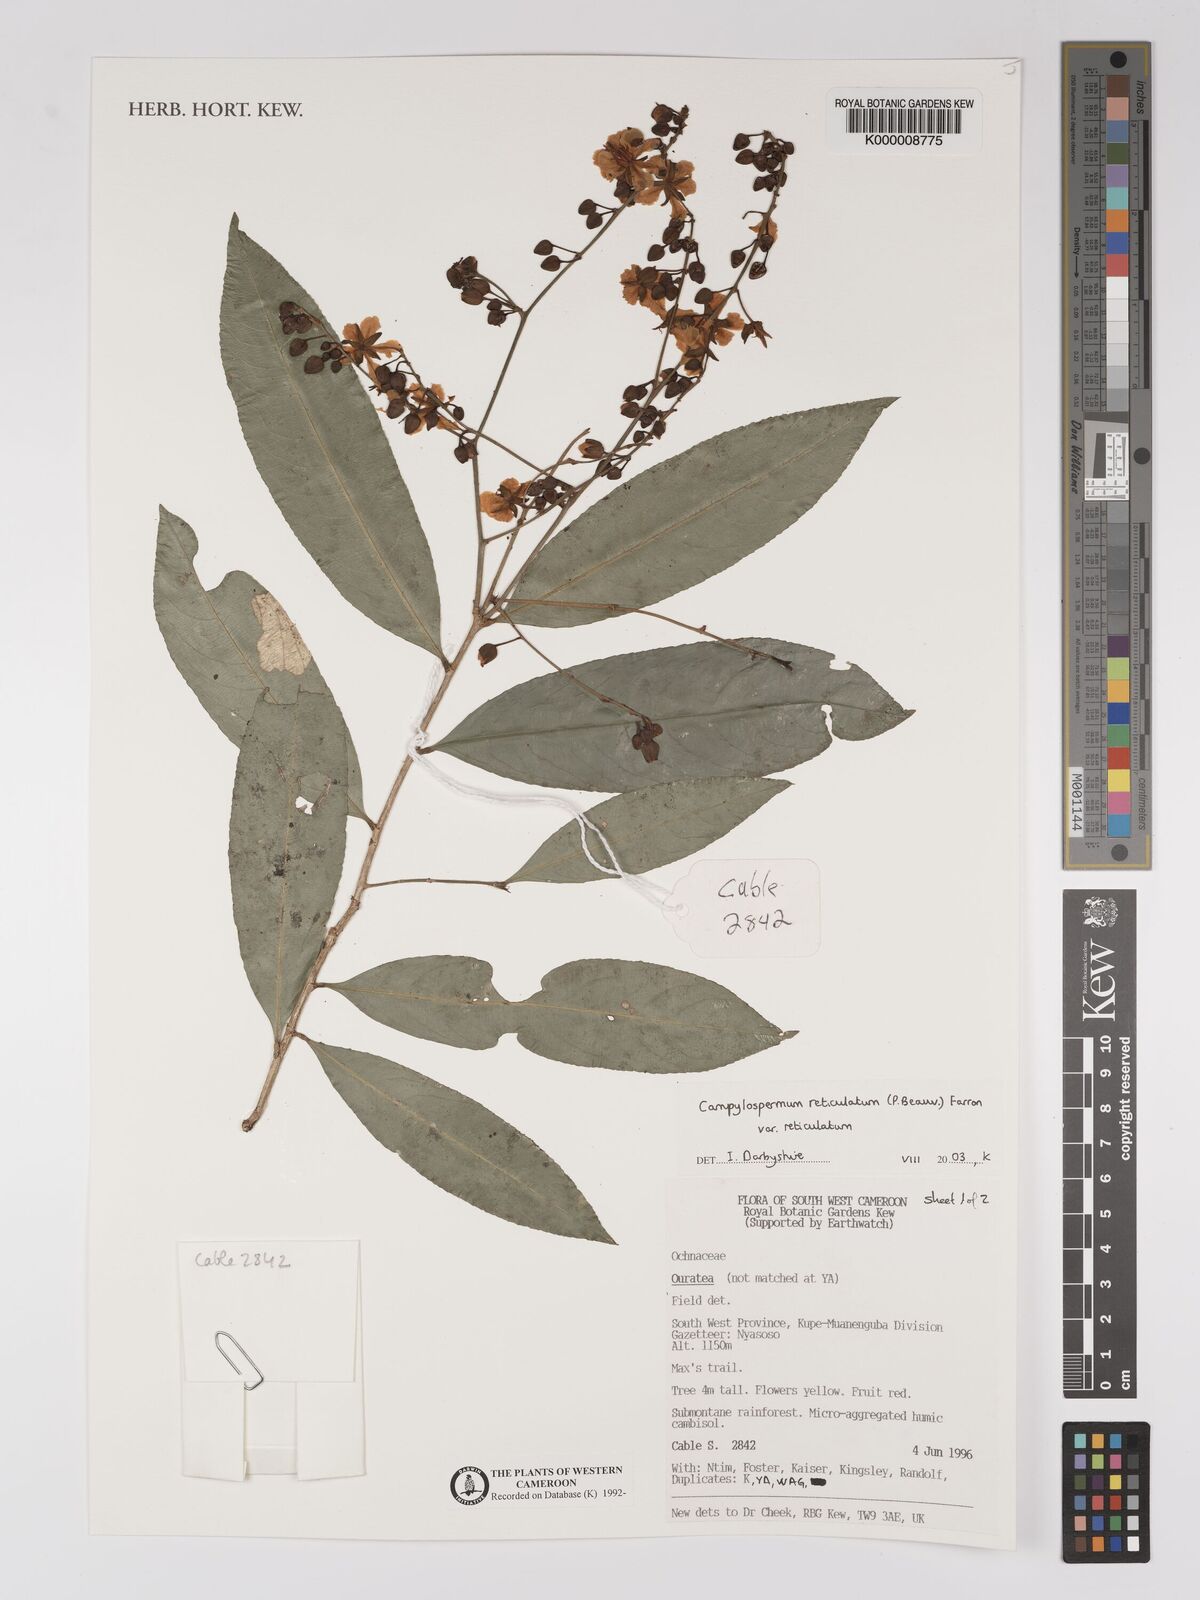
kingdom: Plantae
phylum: Tracheophyta
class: Magnoliopsida
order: Malpighiales
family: Ochnaceae
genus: Campylospermum
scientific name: Campylospermum reticulatum
